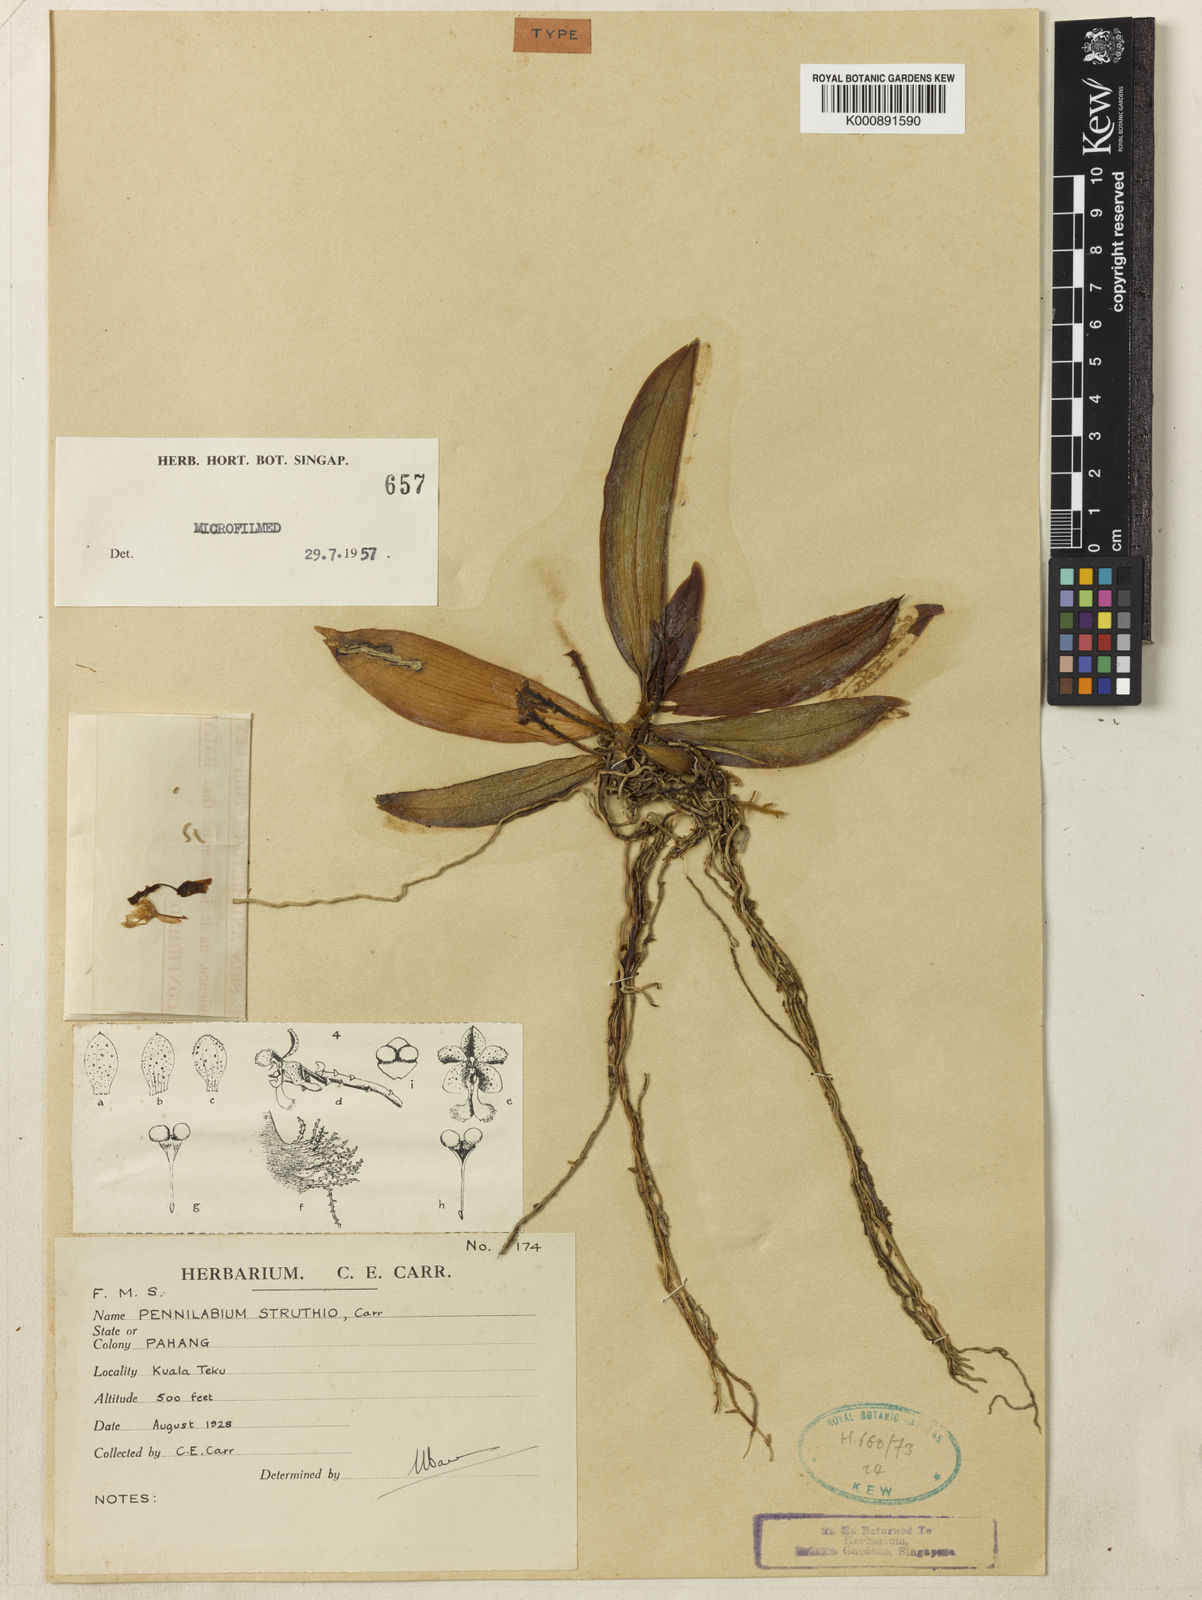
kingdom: Plantae
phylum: Tracheophyta
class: Liliopsida
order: Asparagales
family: Orchidaceae
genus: Pennilabium
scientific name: Pennilabium struthio
